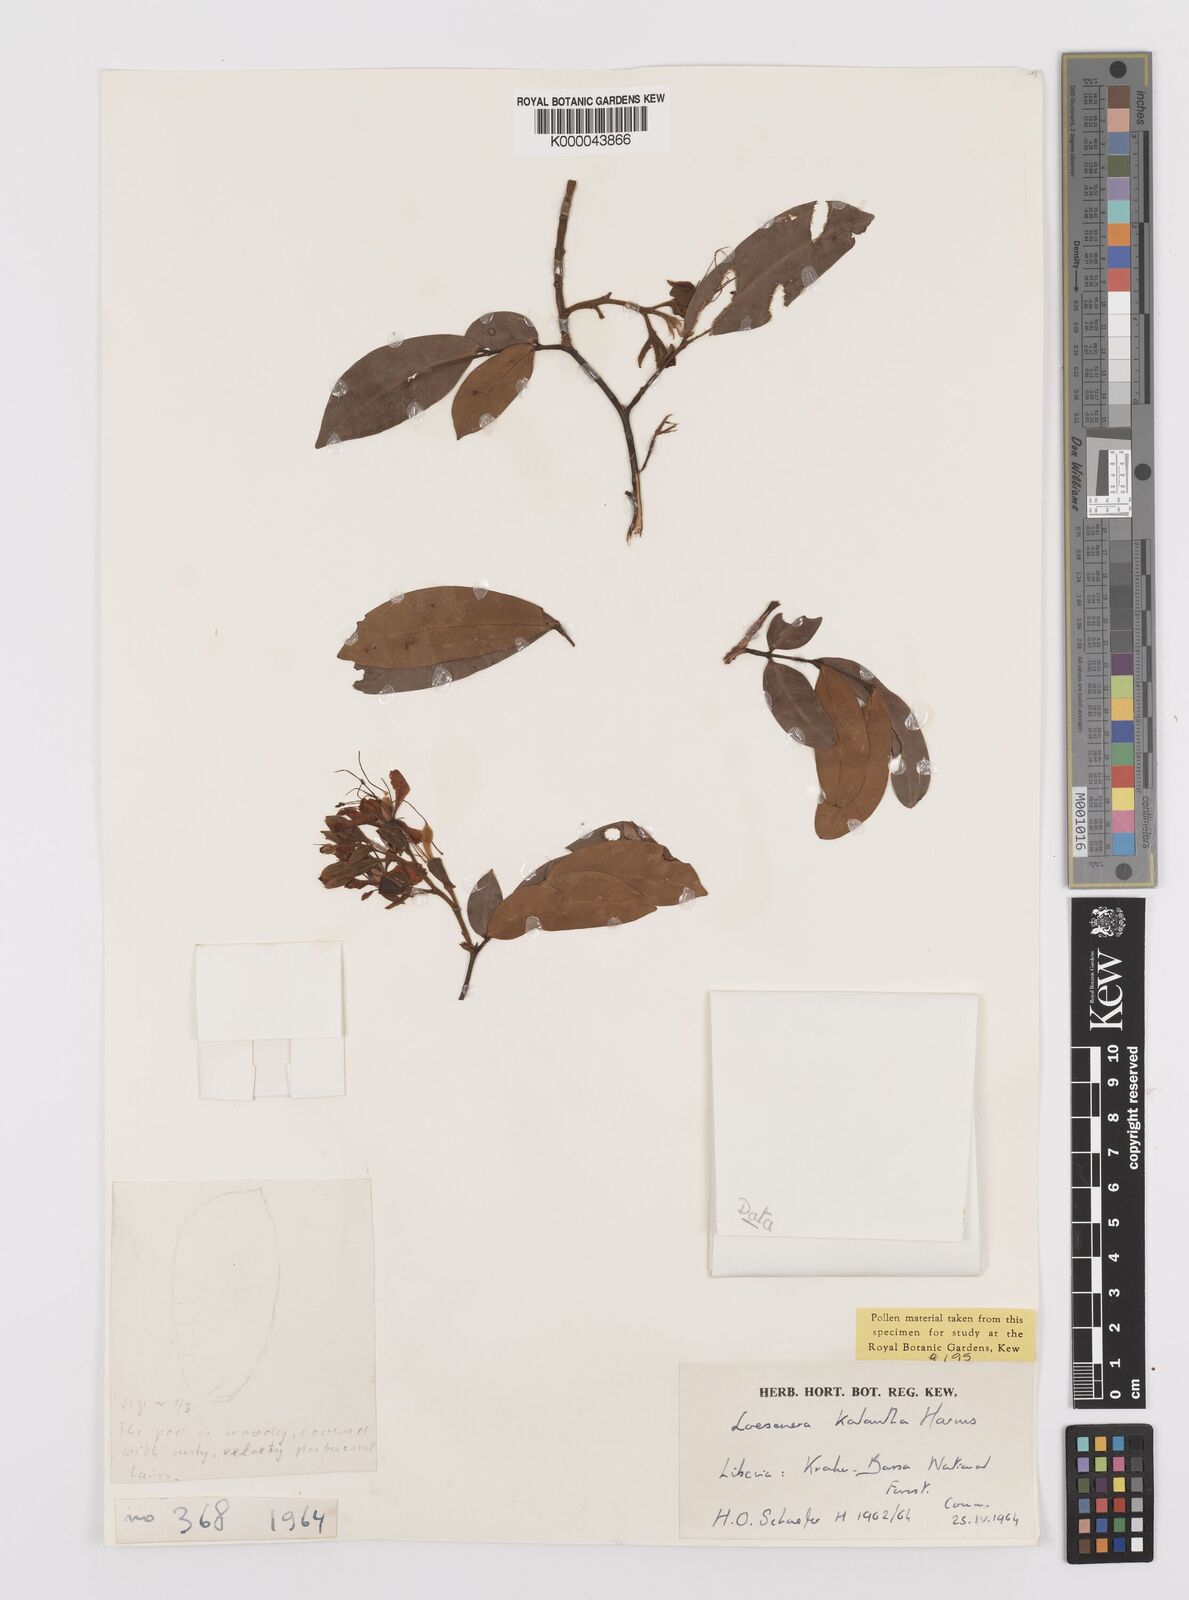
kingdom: Plantae
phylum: Tracheophyta
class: Magnoliopsida
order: Fabales
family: Fabaceae
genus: Loesenera
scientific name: Loesenera kalantha
